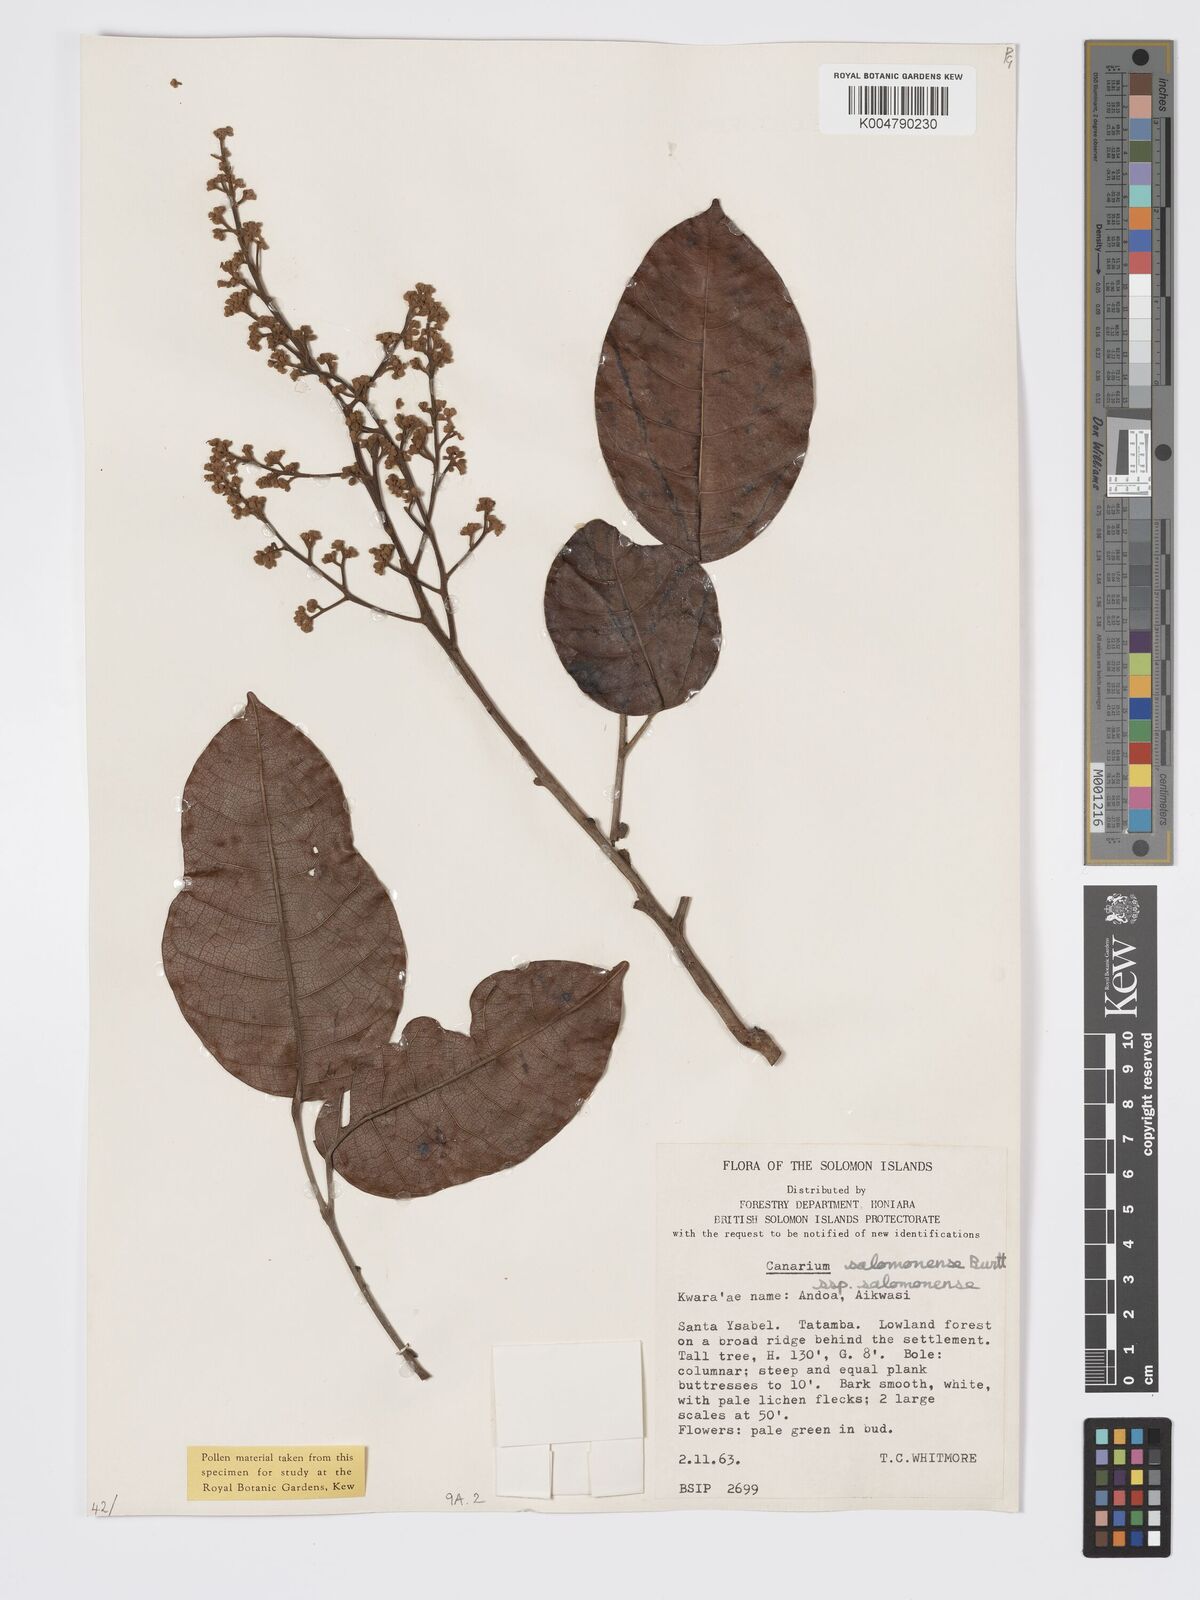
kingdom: Plantae
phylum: Tracheophyta
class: Magnoliopsida
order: Sapindales
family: Burseraceae
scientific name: Burseraceae
